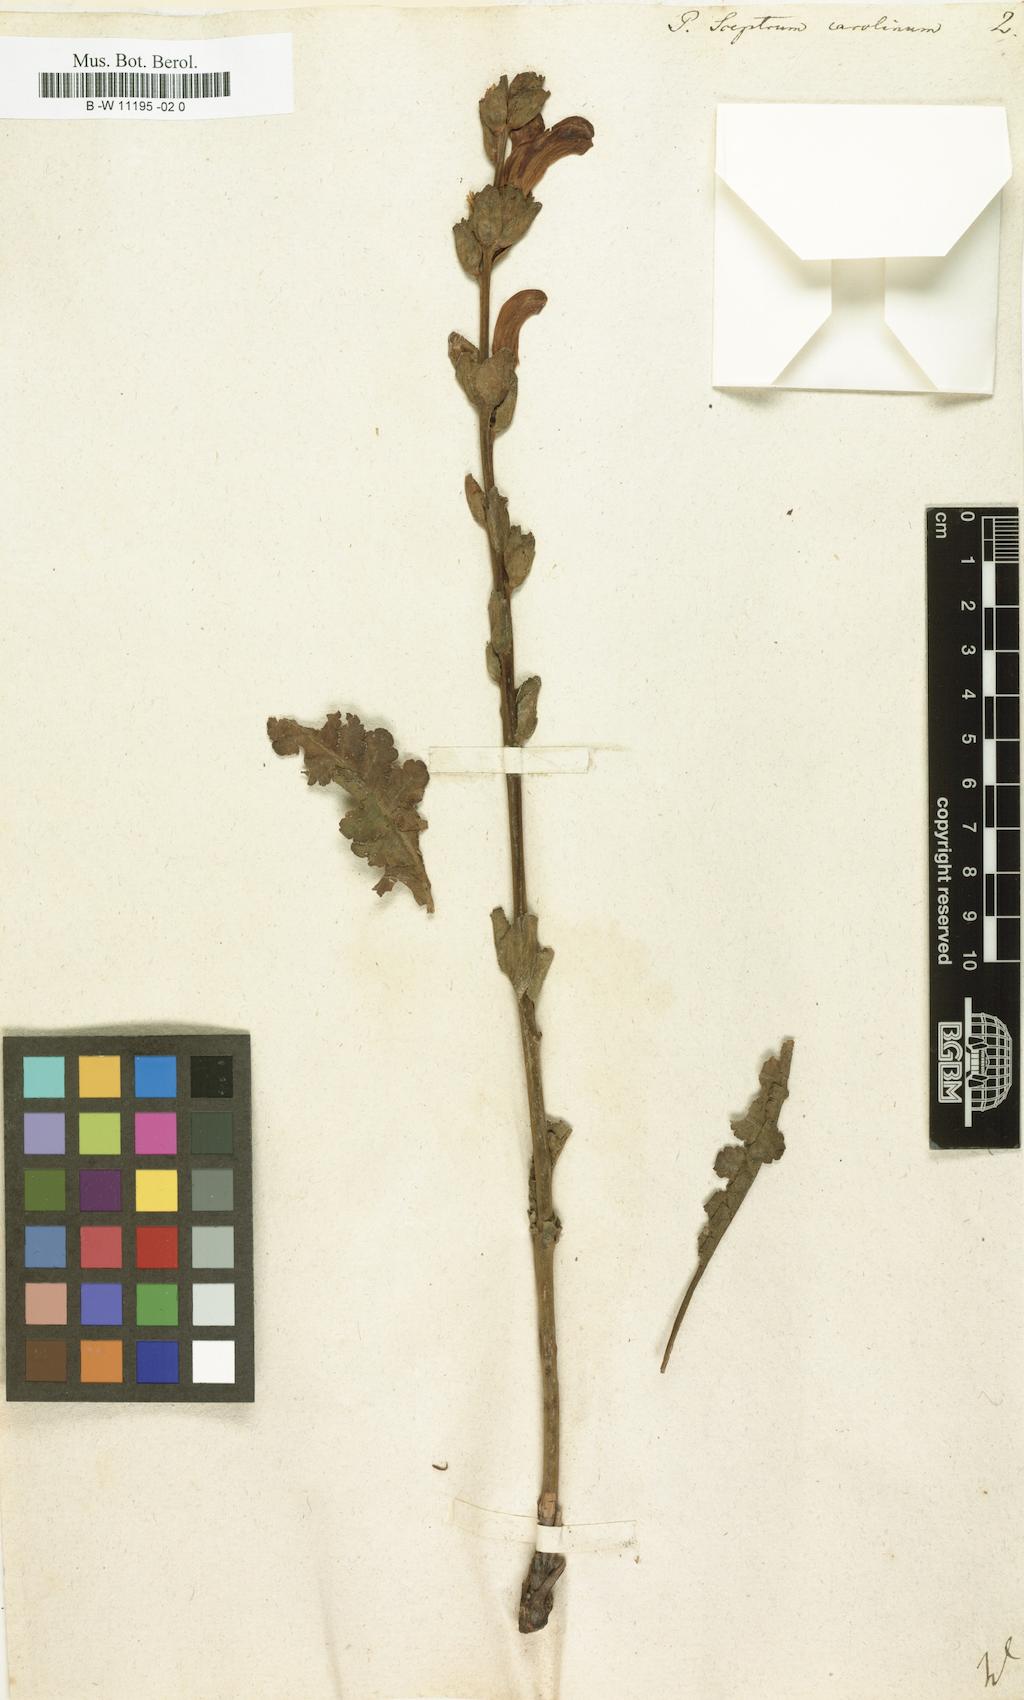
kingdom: Plantae
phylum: Tracheophyta
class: Magnoliopsida
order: Lamiales
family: Orobanchaceae
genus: Pedicularis
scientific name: Pedicularis sceptrum-carolinum
